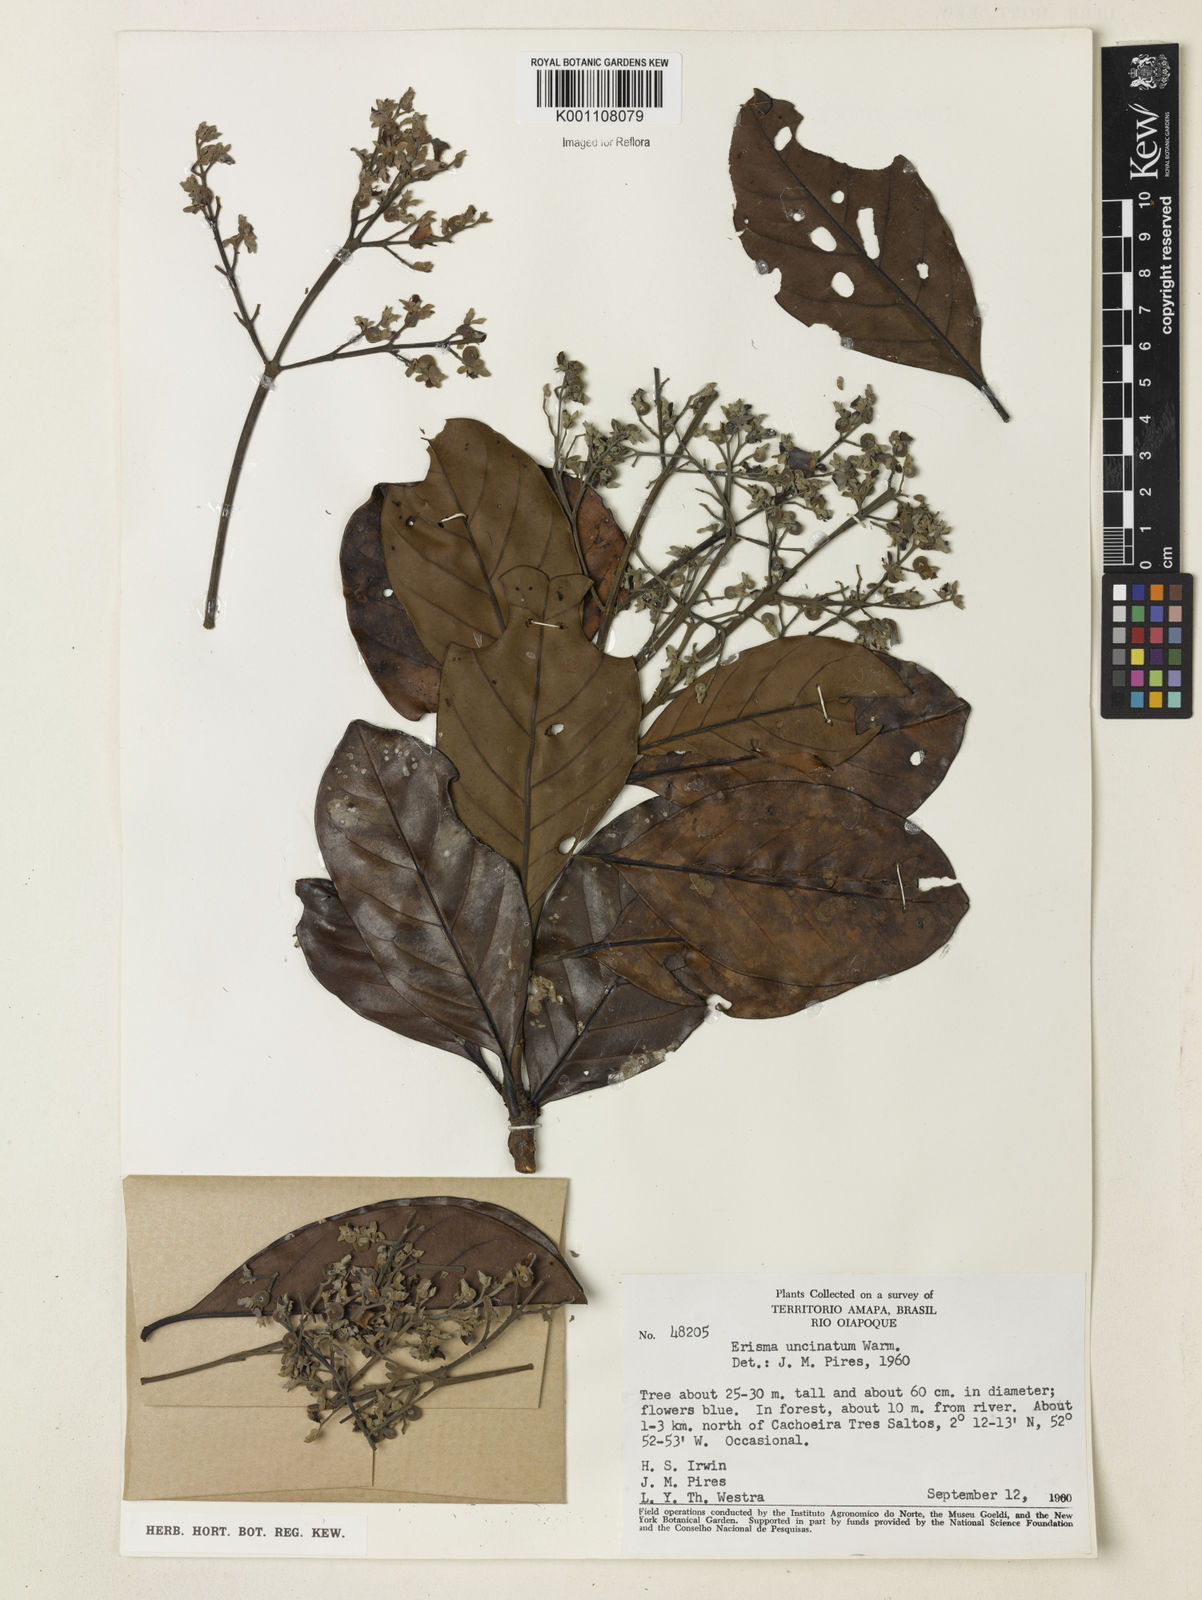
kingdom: Plantae
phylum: Tracheophyta
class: Magnoliopsida
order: Myrtales
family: Vochysiaceae
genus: Erisma
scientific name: Erisma uncinatum
